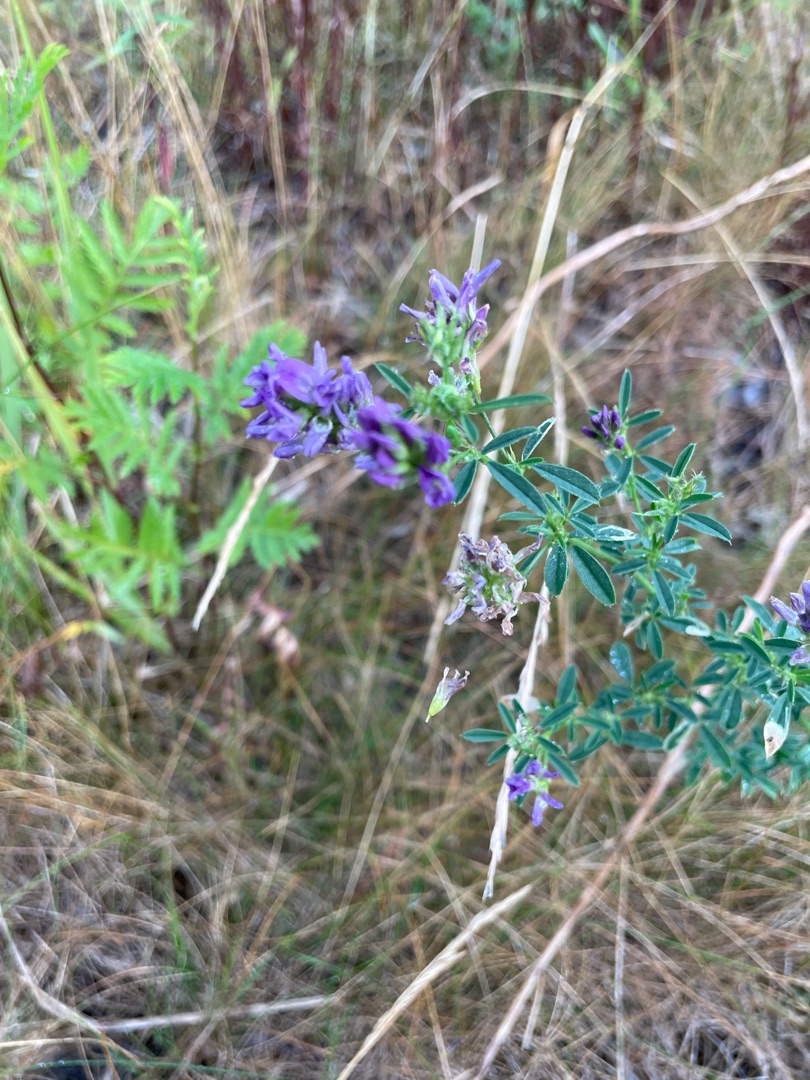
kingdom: Plantae
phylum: Tracheophyta
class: Magnoliopsida
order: Fabales
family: Fabaceae
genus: Medicago
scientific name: Medicago sativa
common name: Lucerne
